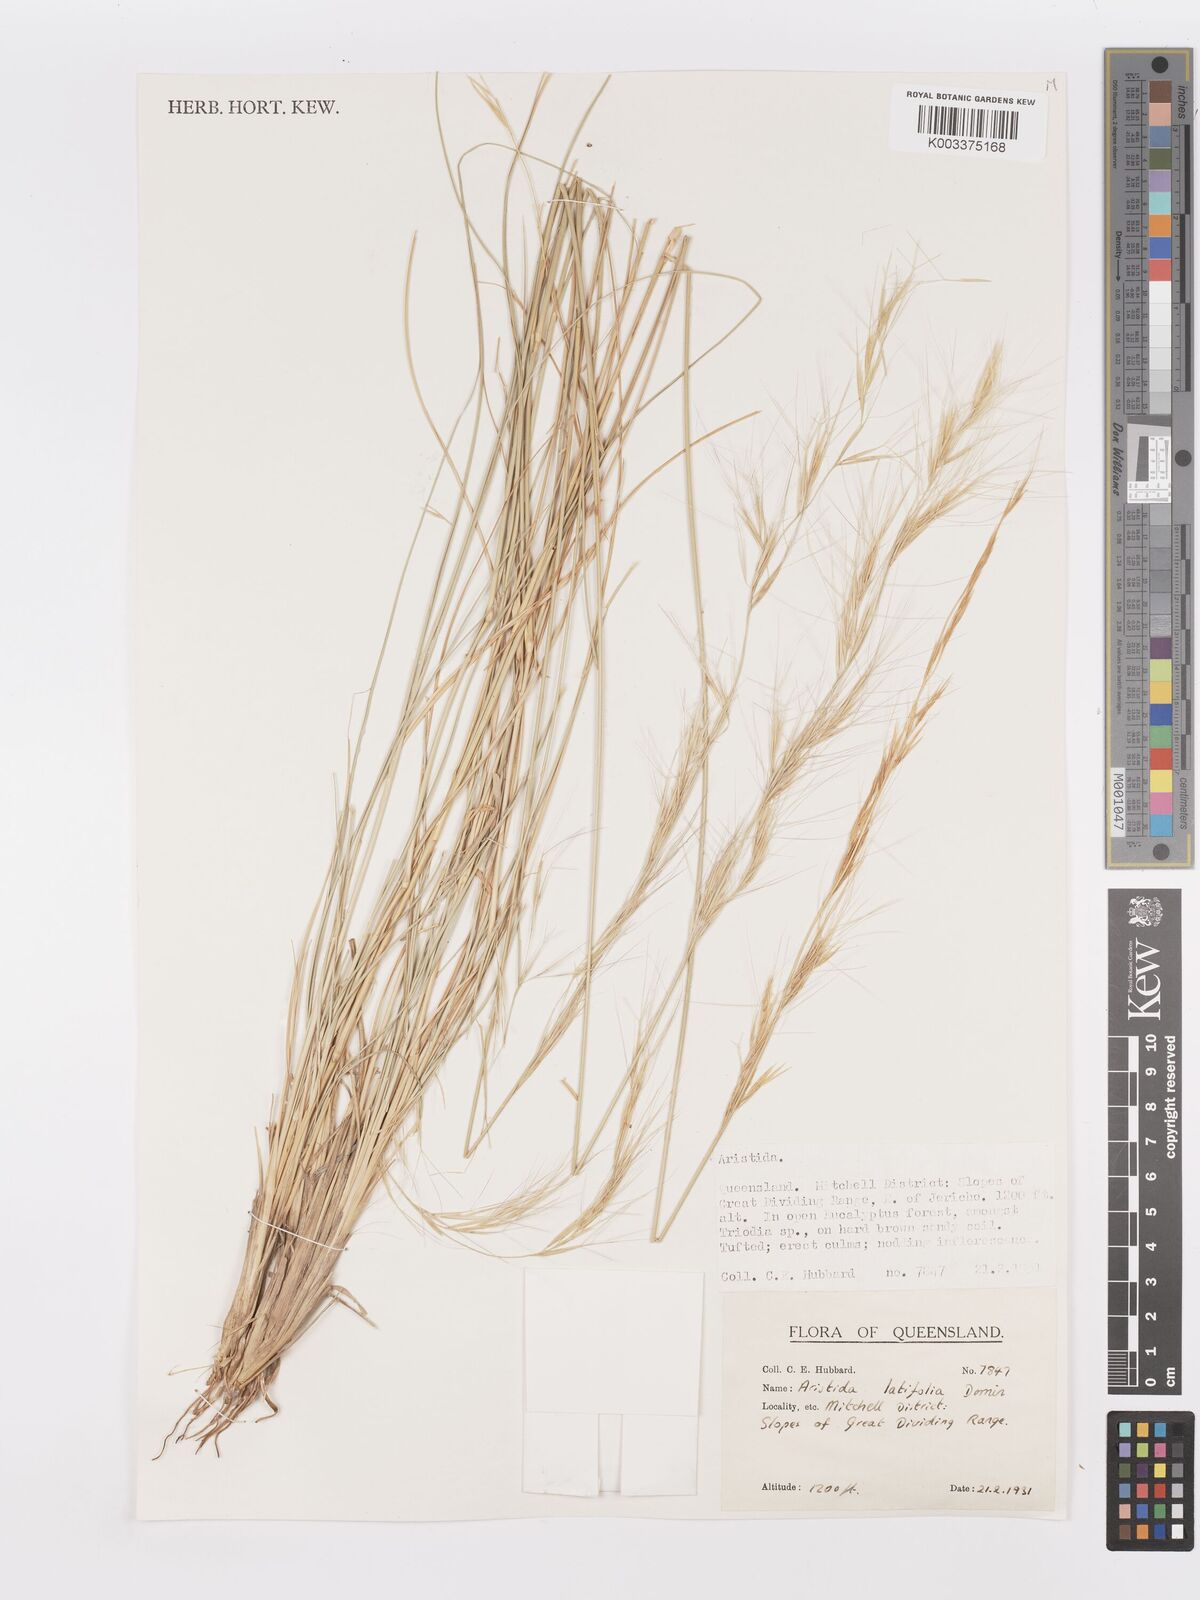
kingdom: Plantae
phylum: Tracheophyta
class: Liliopsida
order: Poales
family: Poaceae
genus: Aristida
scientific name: Aristida latifolia
